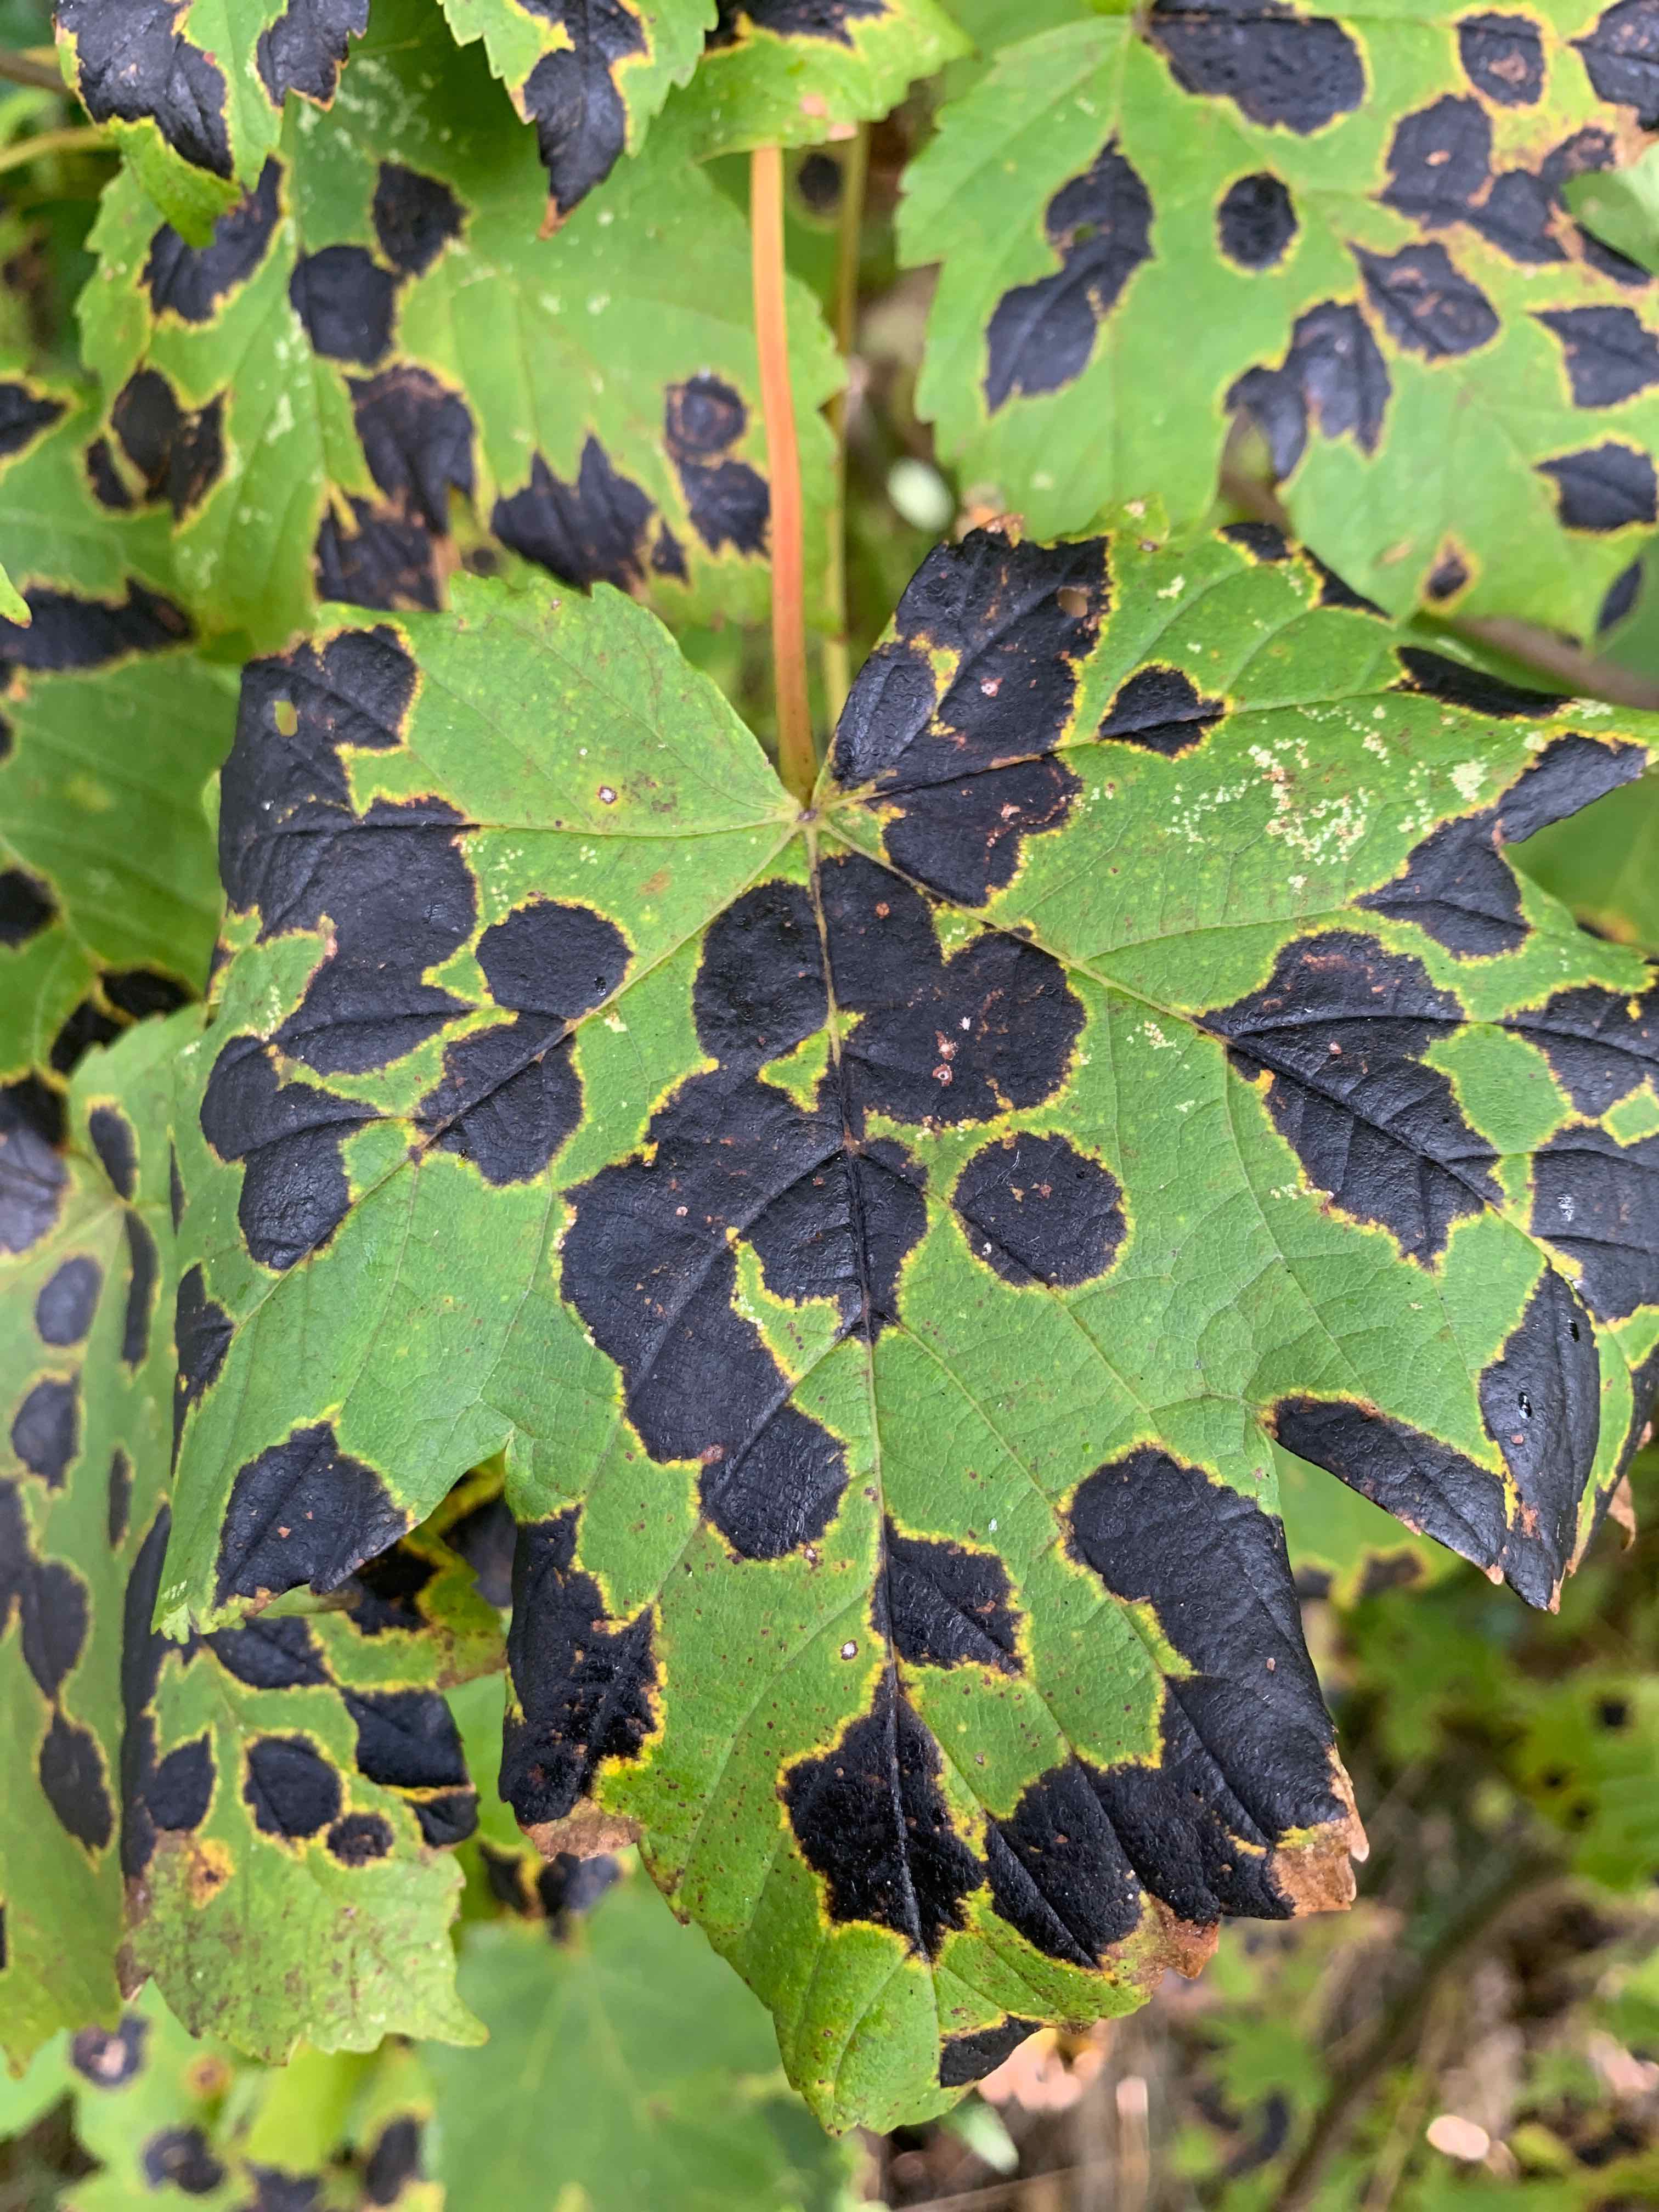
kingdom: Fungi
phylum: Ascomycota
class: Leotiomycetes
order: Rhytismatales
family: Rhytismataceae
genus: Rhytisma
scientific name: Rhytisma acerinum
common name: ahorn-rynkeplet
